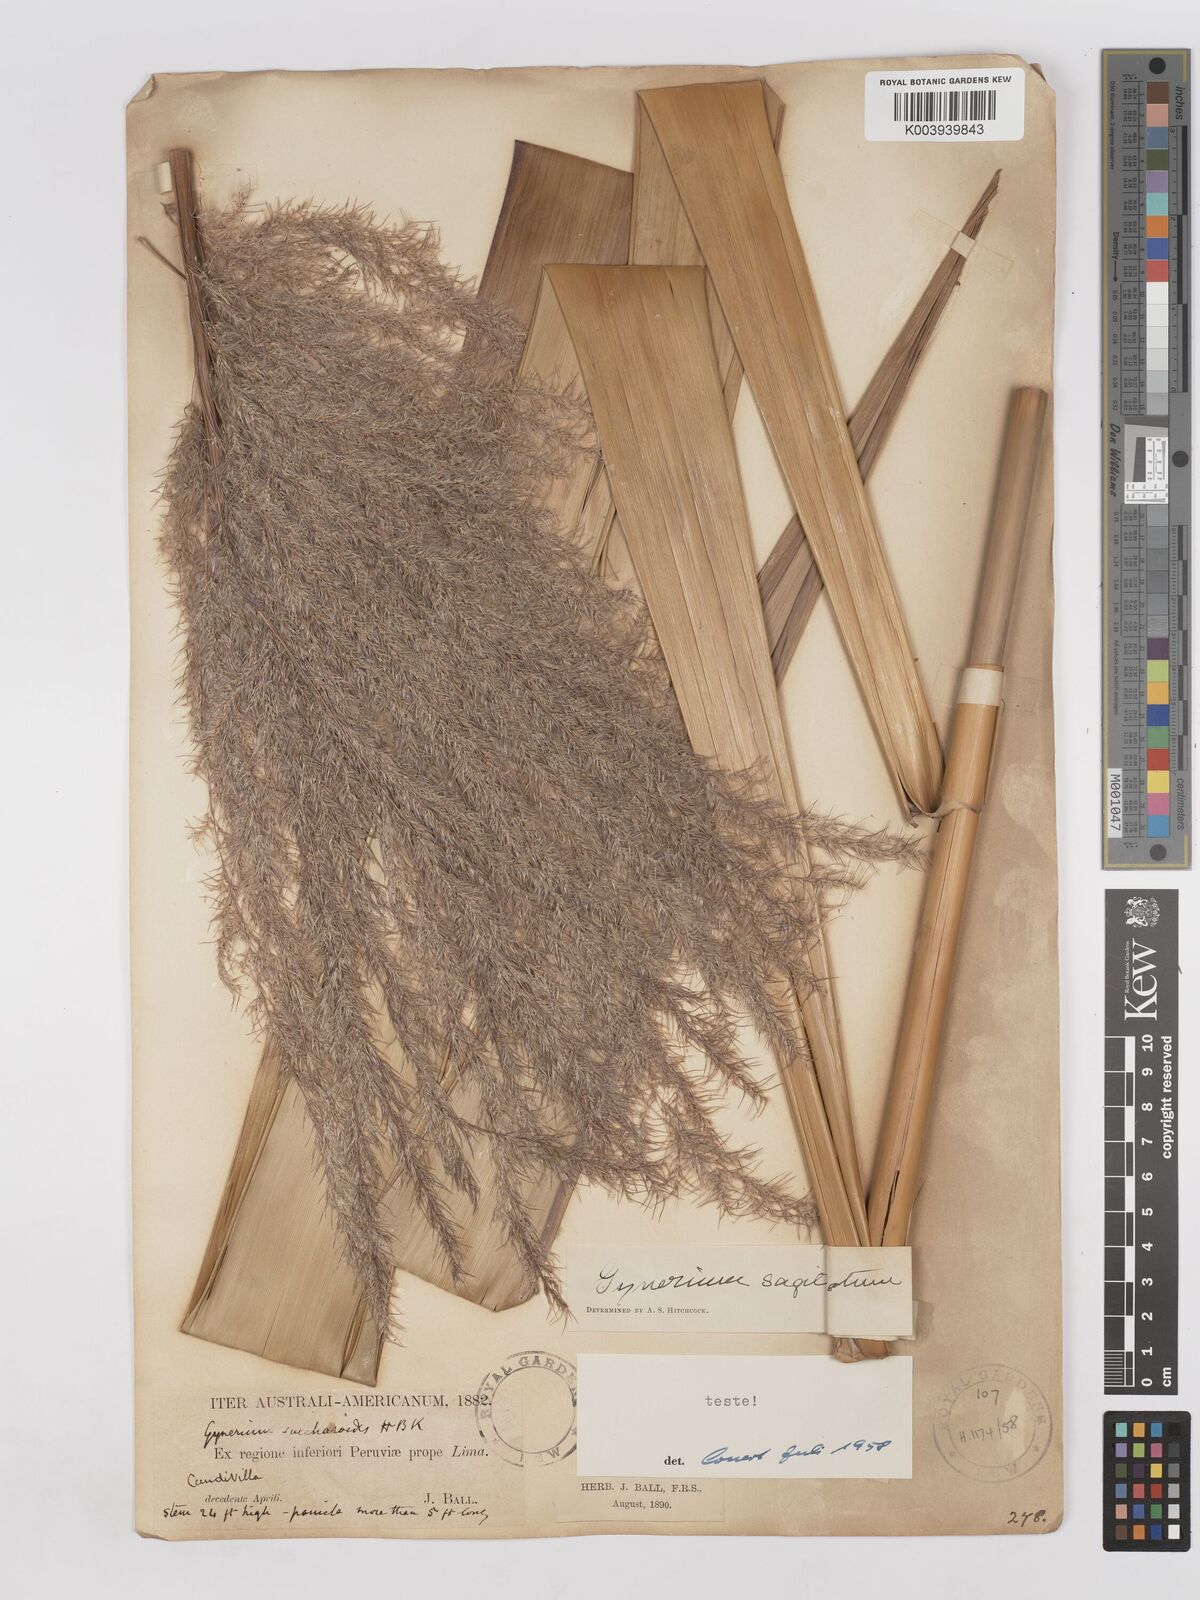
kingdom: Plantae
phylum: Tracheophyta
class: Liliopsida
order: Poales
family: Poaceae
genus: Gynerium
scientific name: Gynerium sagittatum
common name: Wild cane
